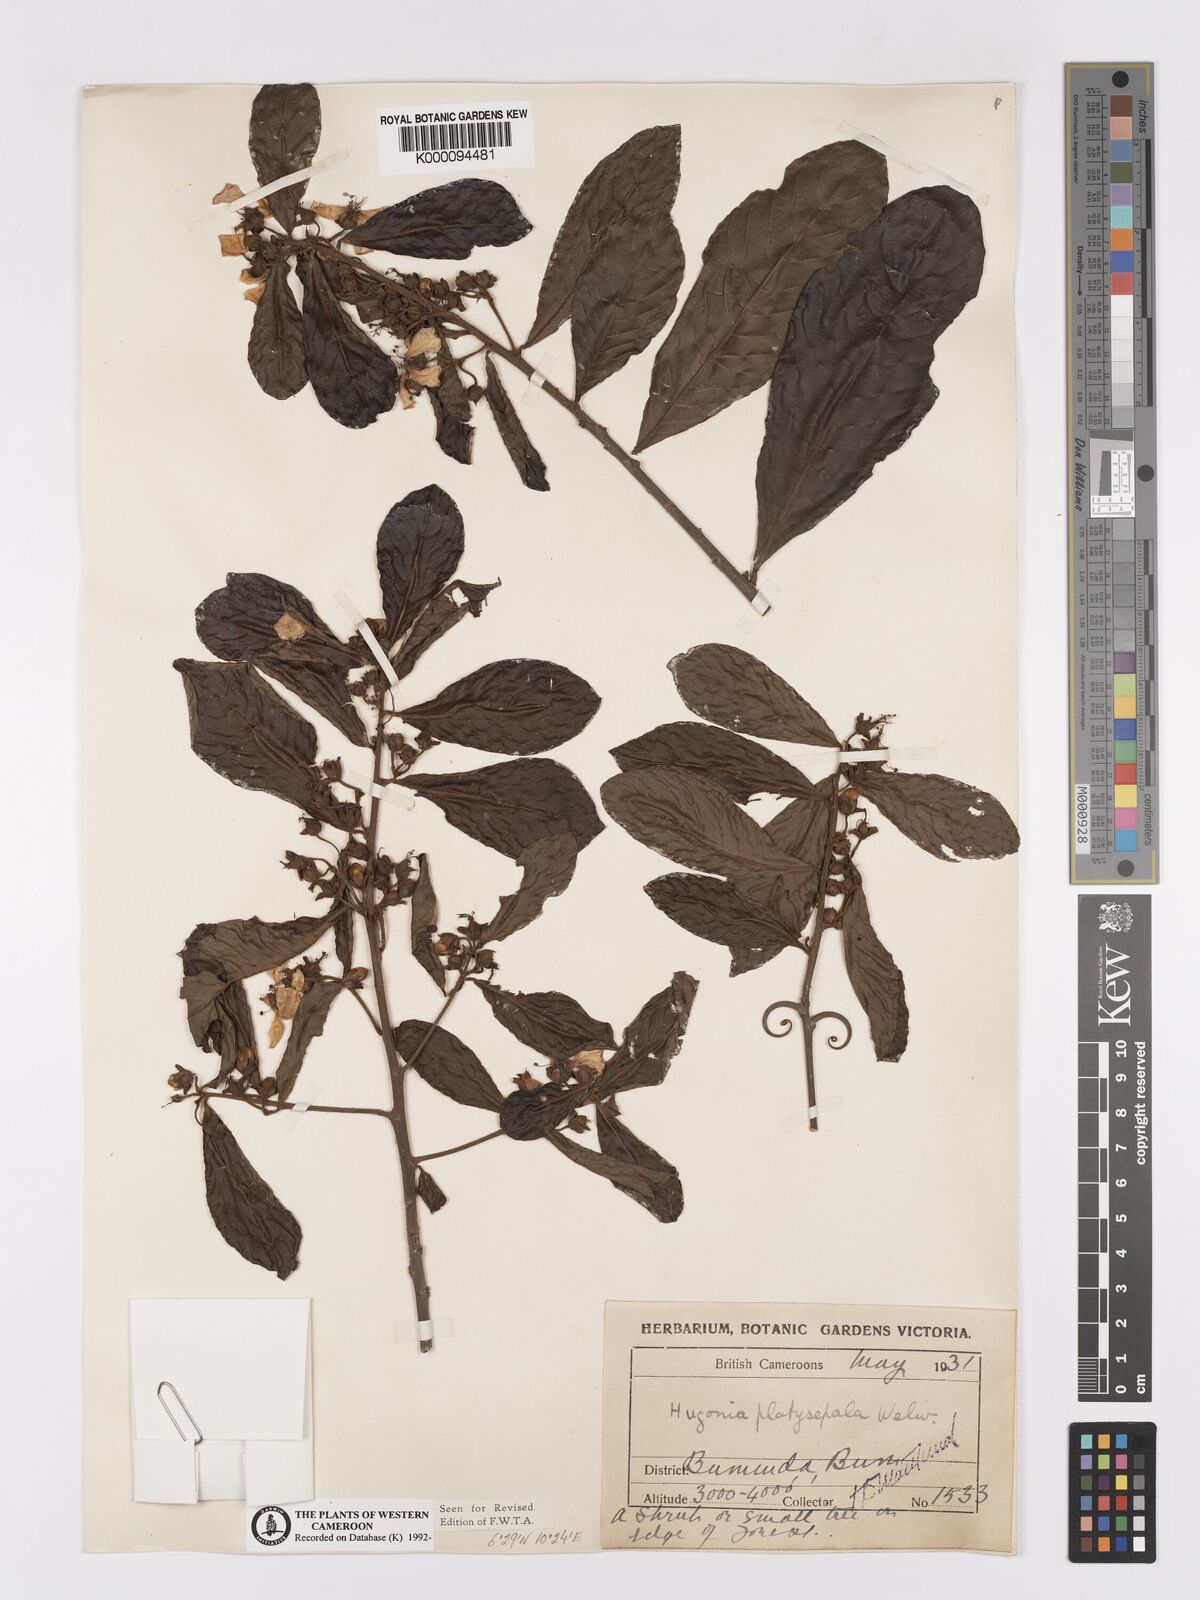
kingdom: Plantae
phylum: Tracheophyta
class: Magnoliopsida
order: Malpighiales
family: Linaceae
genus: Hugonia
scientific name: Hugonia platysepala
